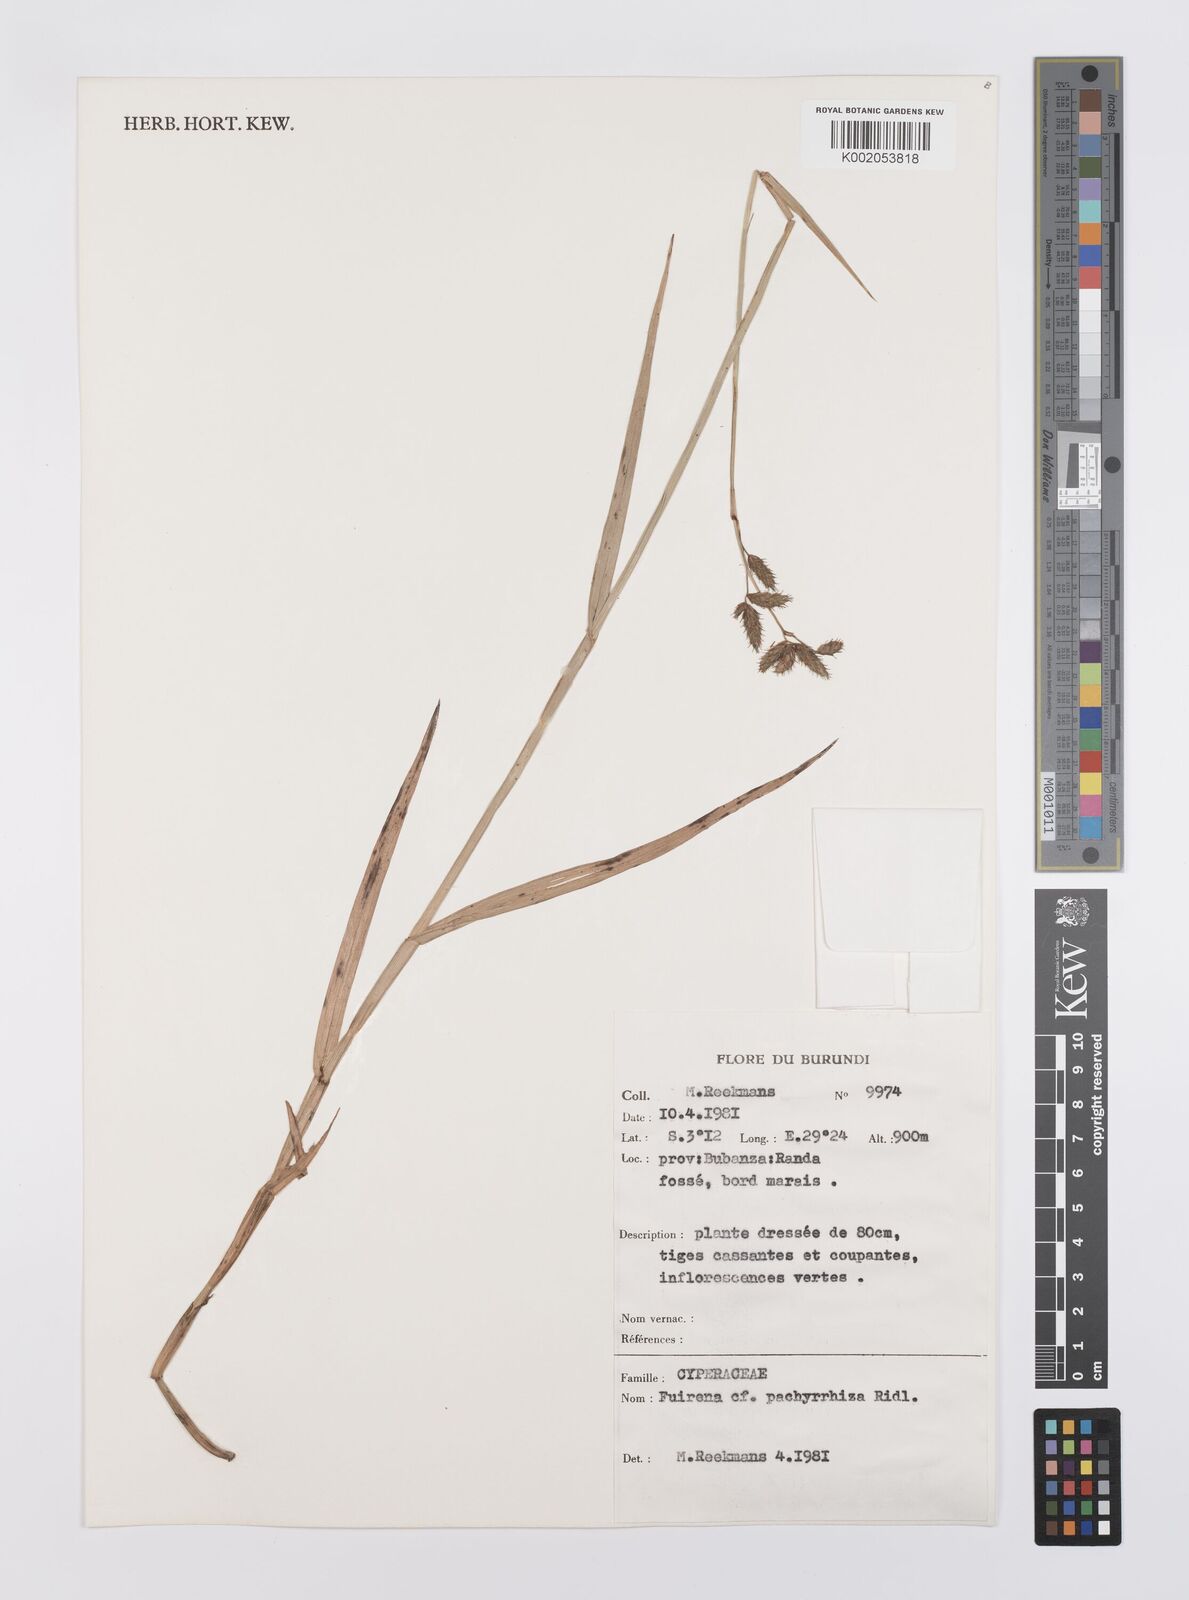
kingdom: Plantae
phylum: Tracheophyta
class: Liliopsida
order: Poales
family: Cyperaceae
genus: Fuirena
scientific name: Fuirena pachyrrhiza
